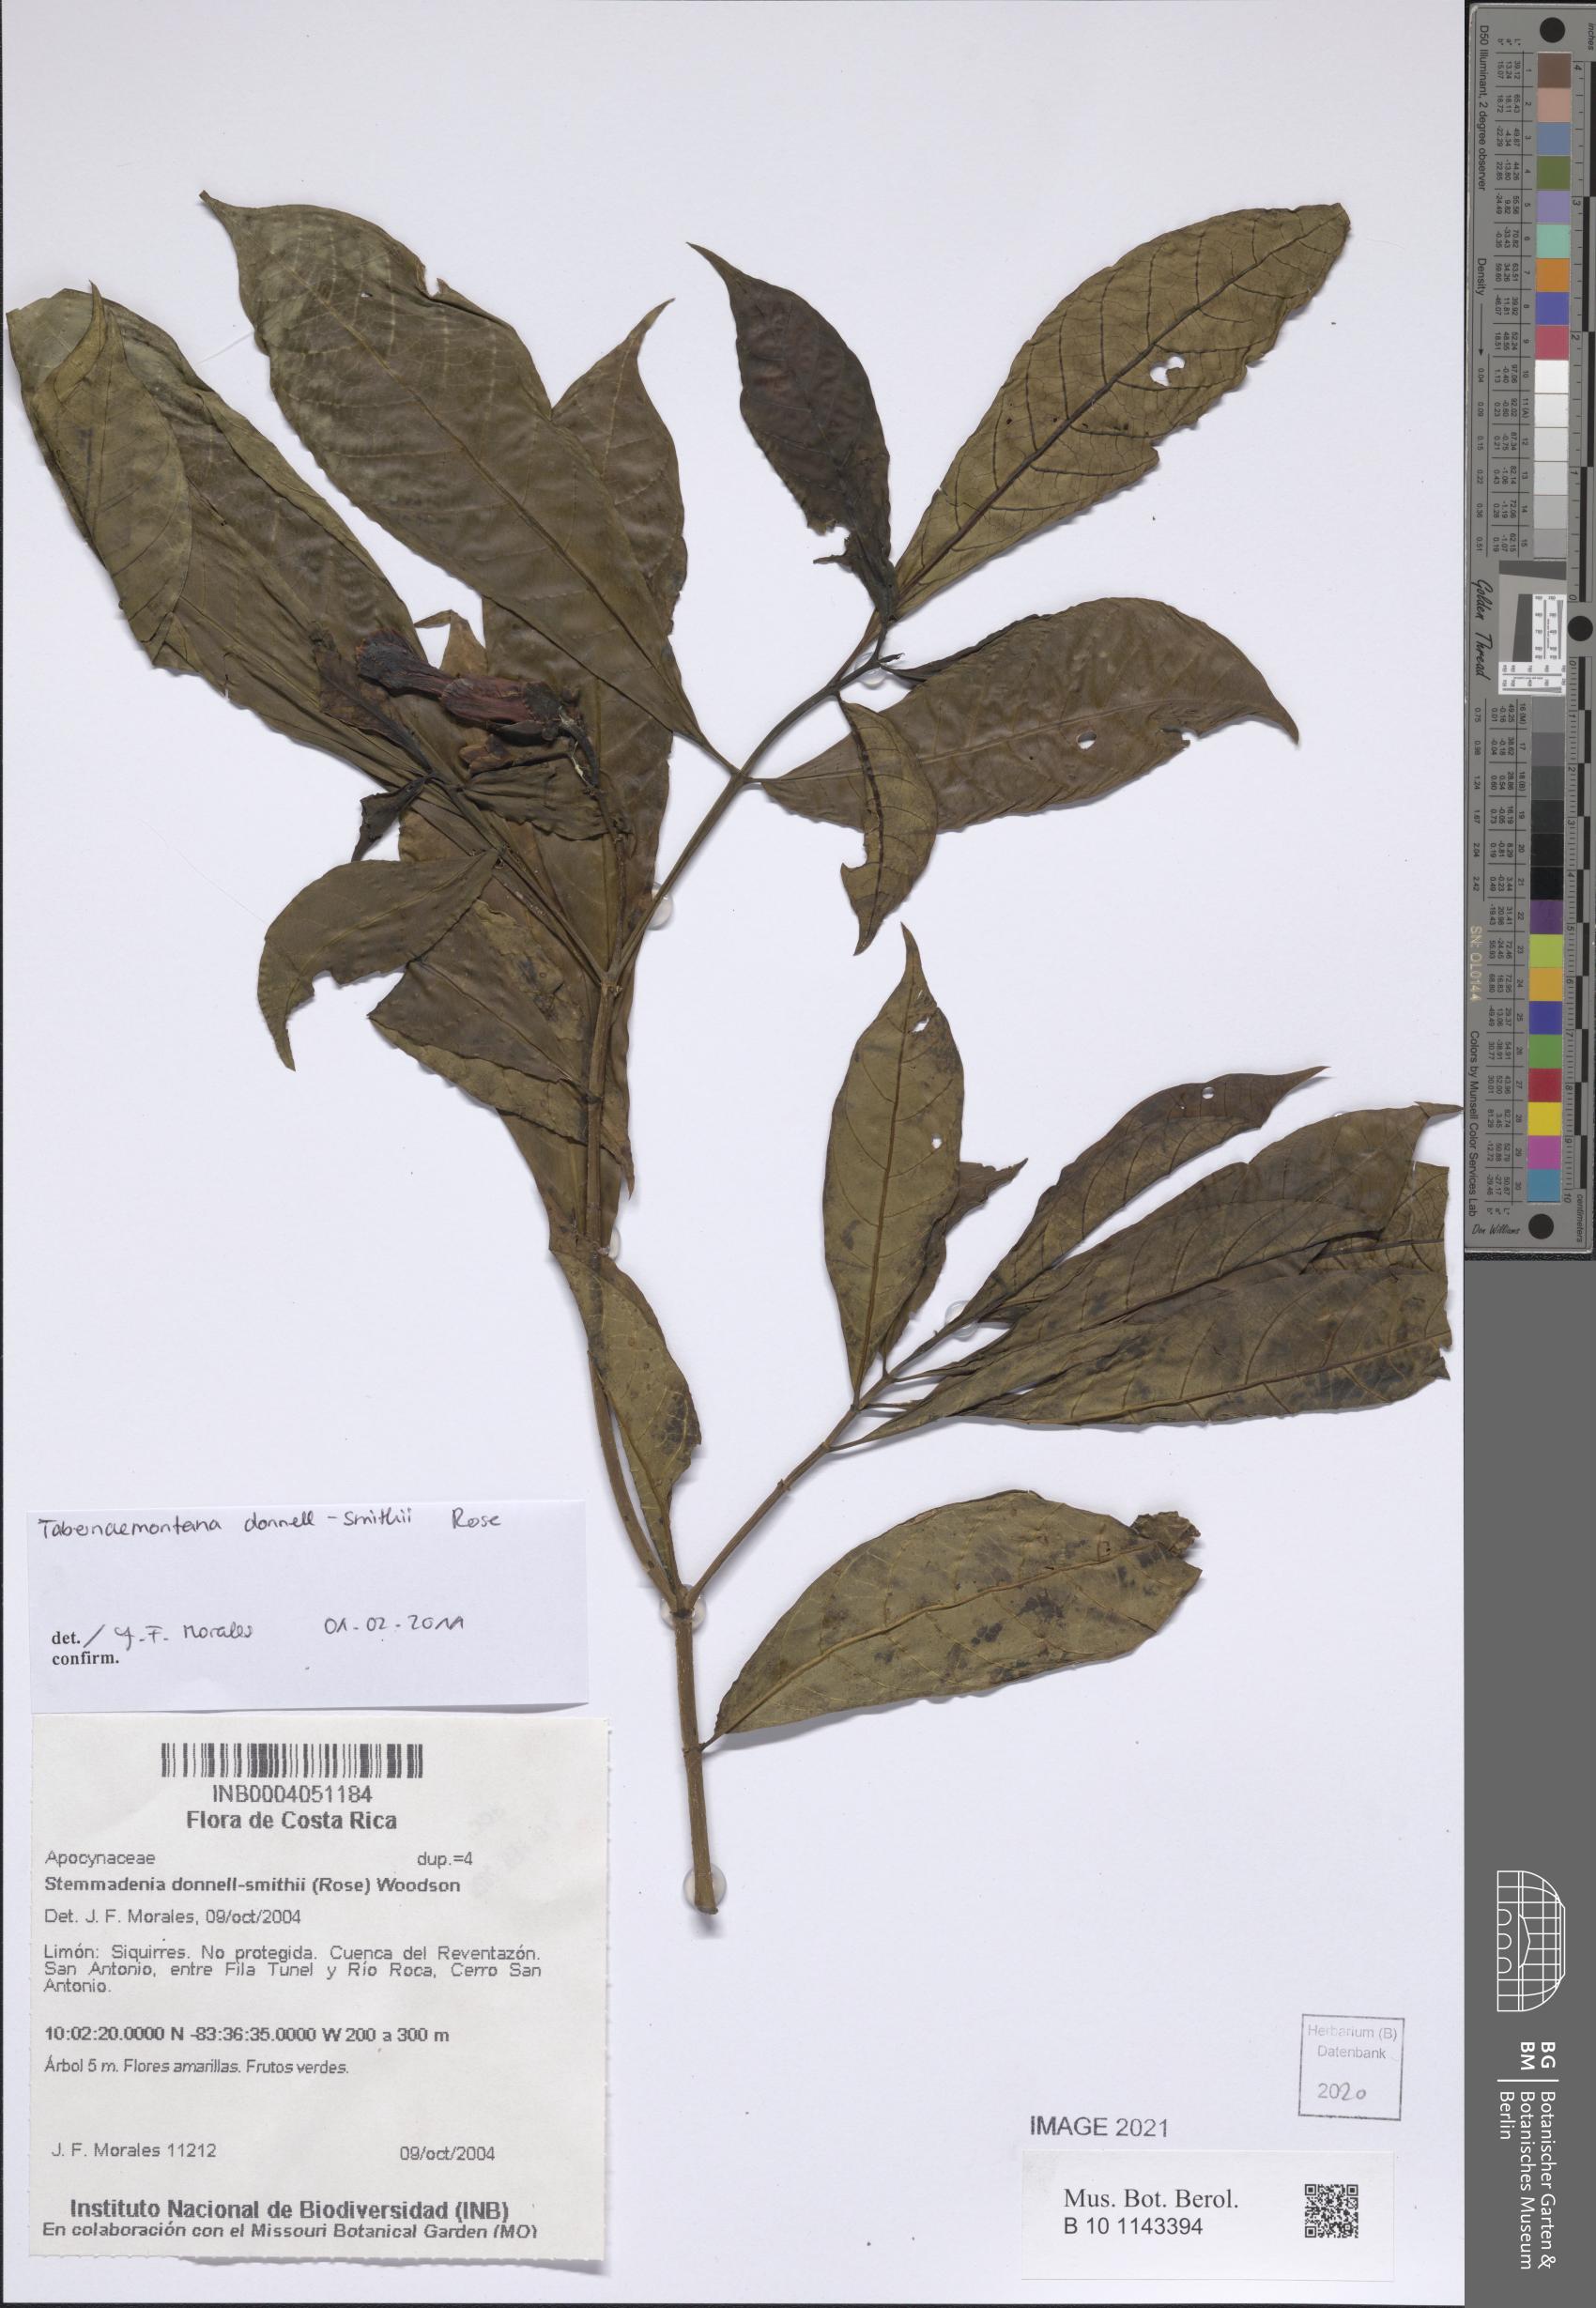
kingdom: Plantae
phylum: Tracheophyta
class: Magnoliopsida
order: Gentianales
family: Apocynaceae
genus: Tabernaemontana
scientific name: Tabernaemontana donnell-smithii
